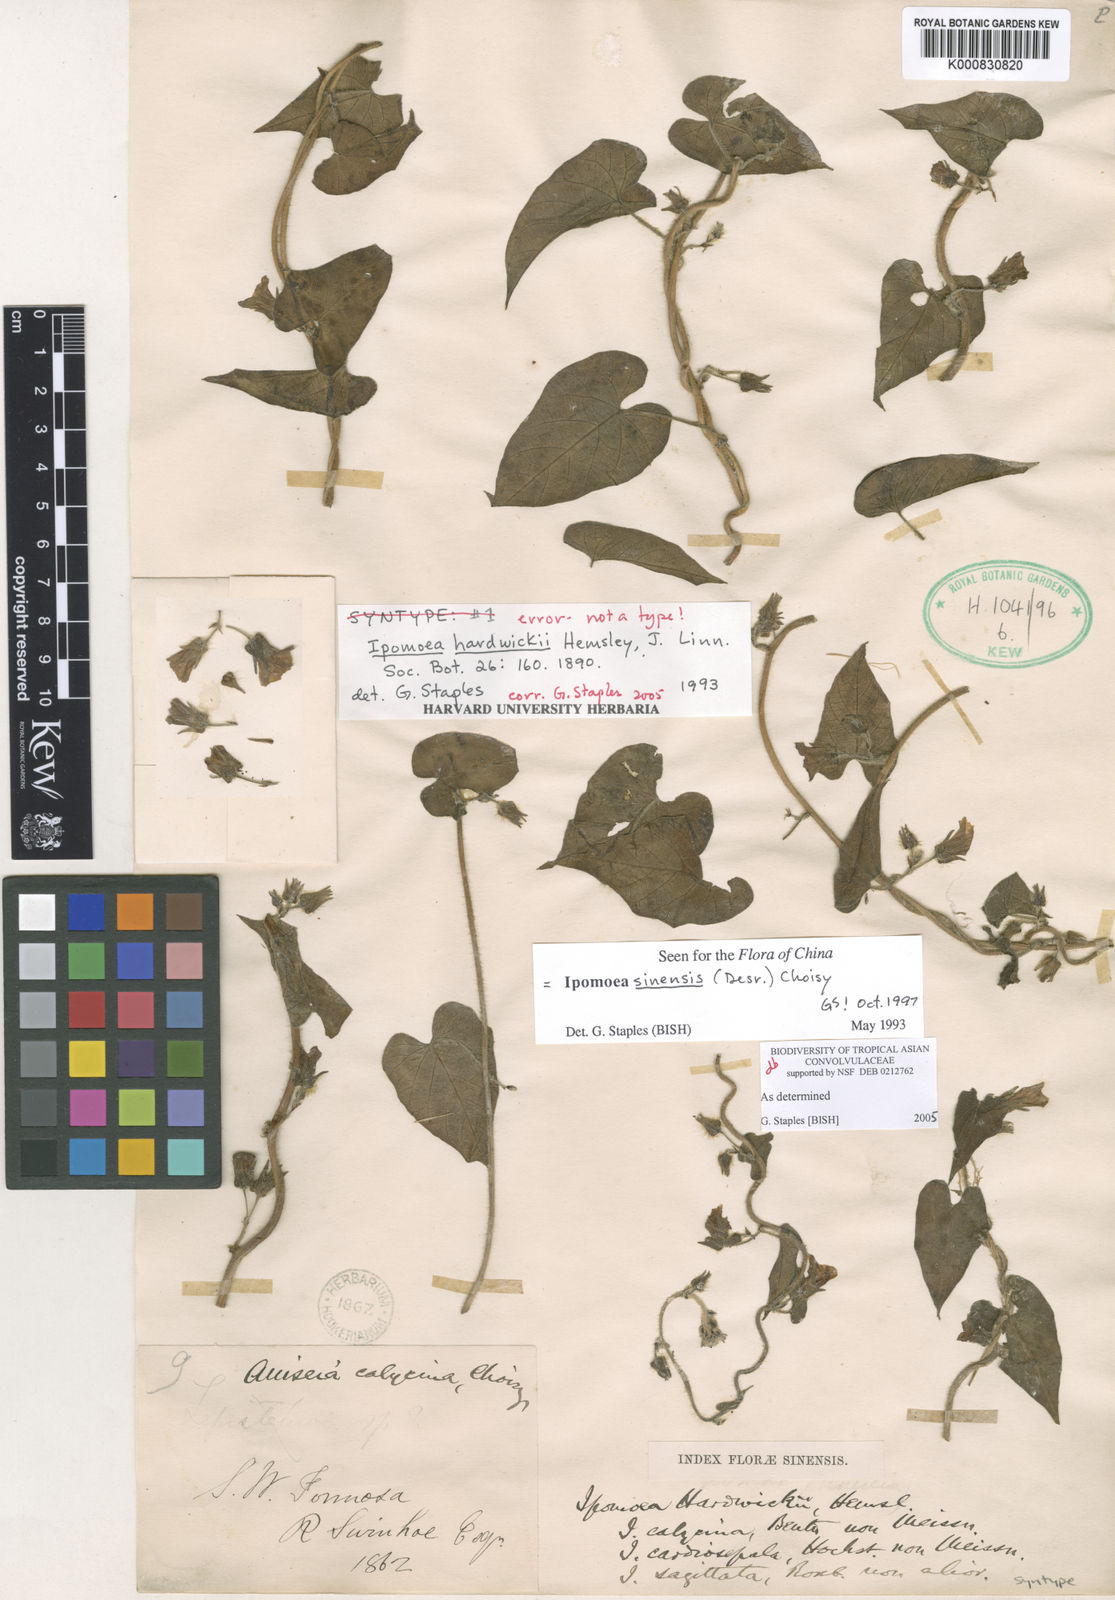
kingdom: Plantae
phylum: Tracheophyta
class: Magnoliopsida
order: Solanales
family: Convolvulaceae
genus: Ipomoea
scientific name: Ipomoea sinensis
